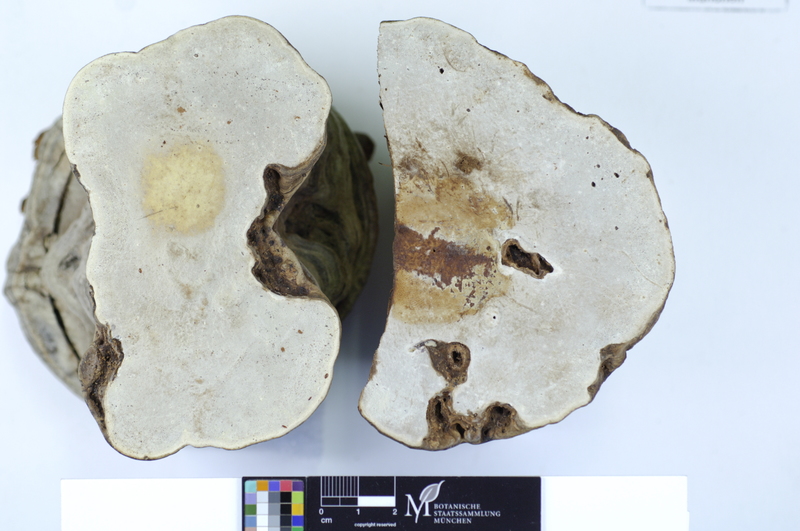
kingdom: Fungi
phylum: Basidiomycota
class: Agaricomycetes
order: Polyporales
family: Polyporaceae
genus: Ganoderma
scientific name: Ganoderma applanatum
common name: Artist's bracket
